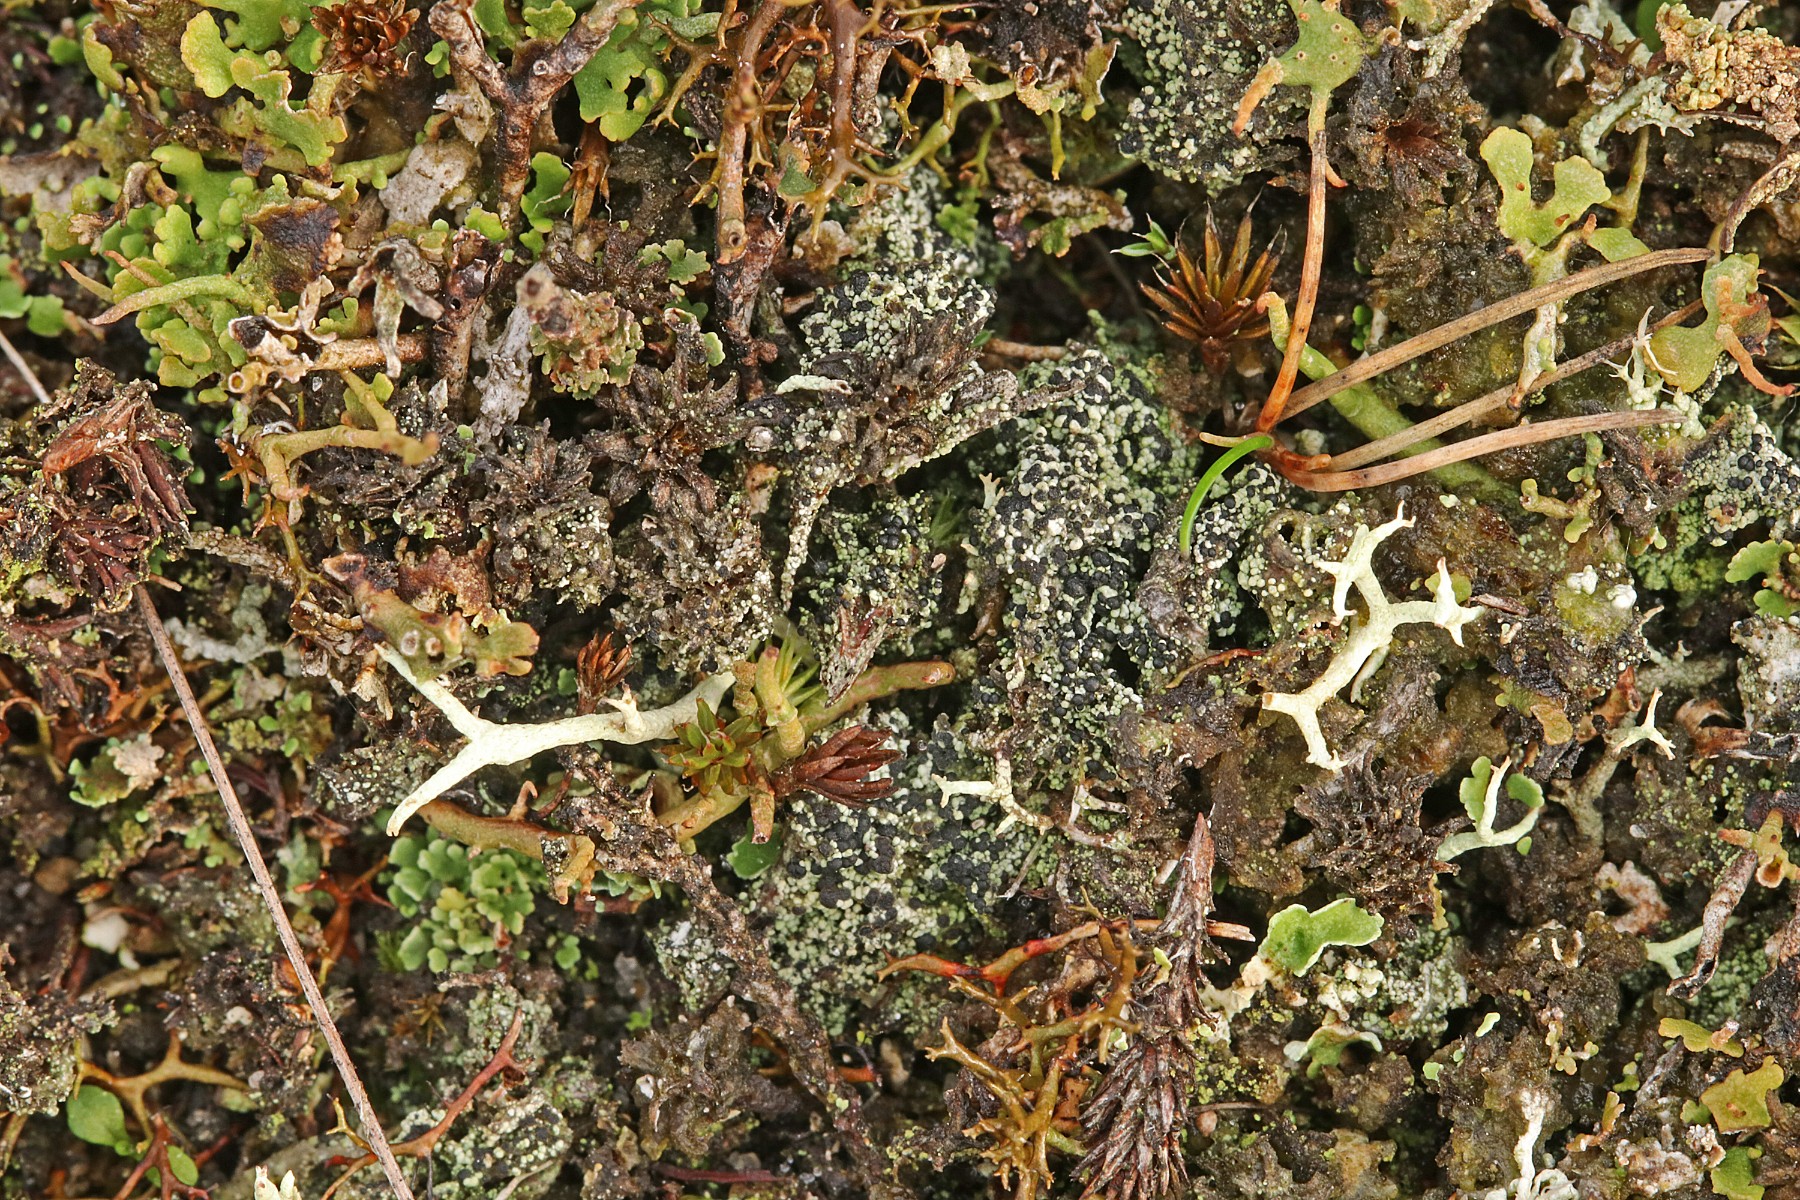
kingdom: Fungi
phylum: Ascomycota
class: Lecanoromycetes
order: Lecanorales
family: Byssolomataceae
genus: Micarea
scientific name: Micarea lignaria
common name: tørve-knaplav
